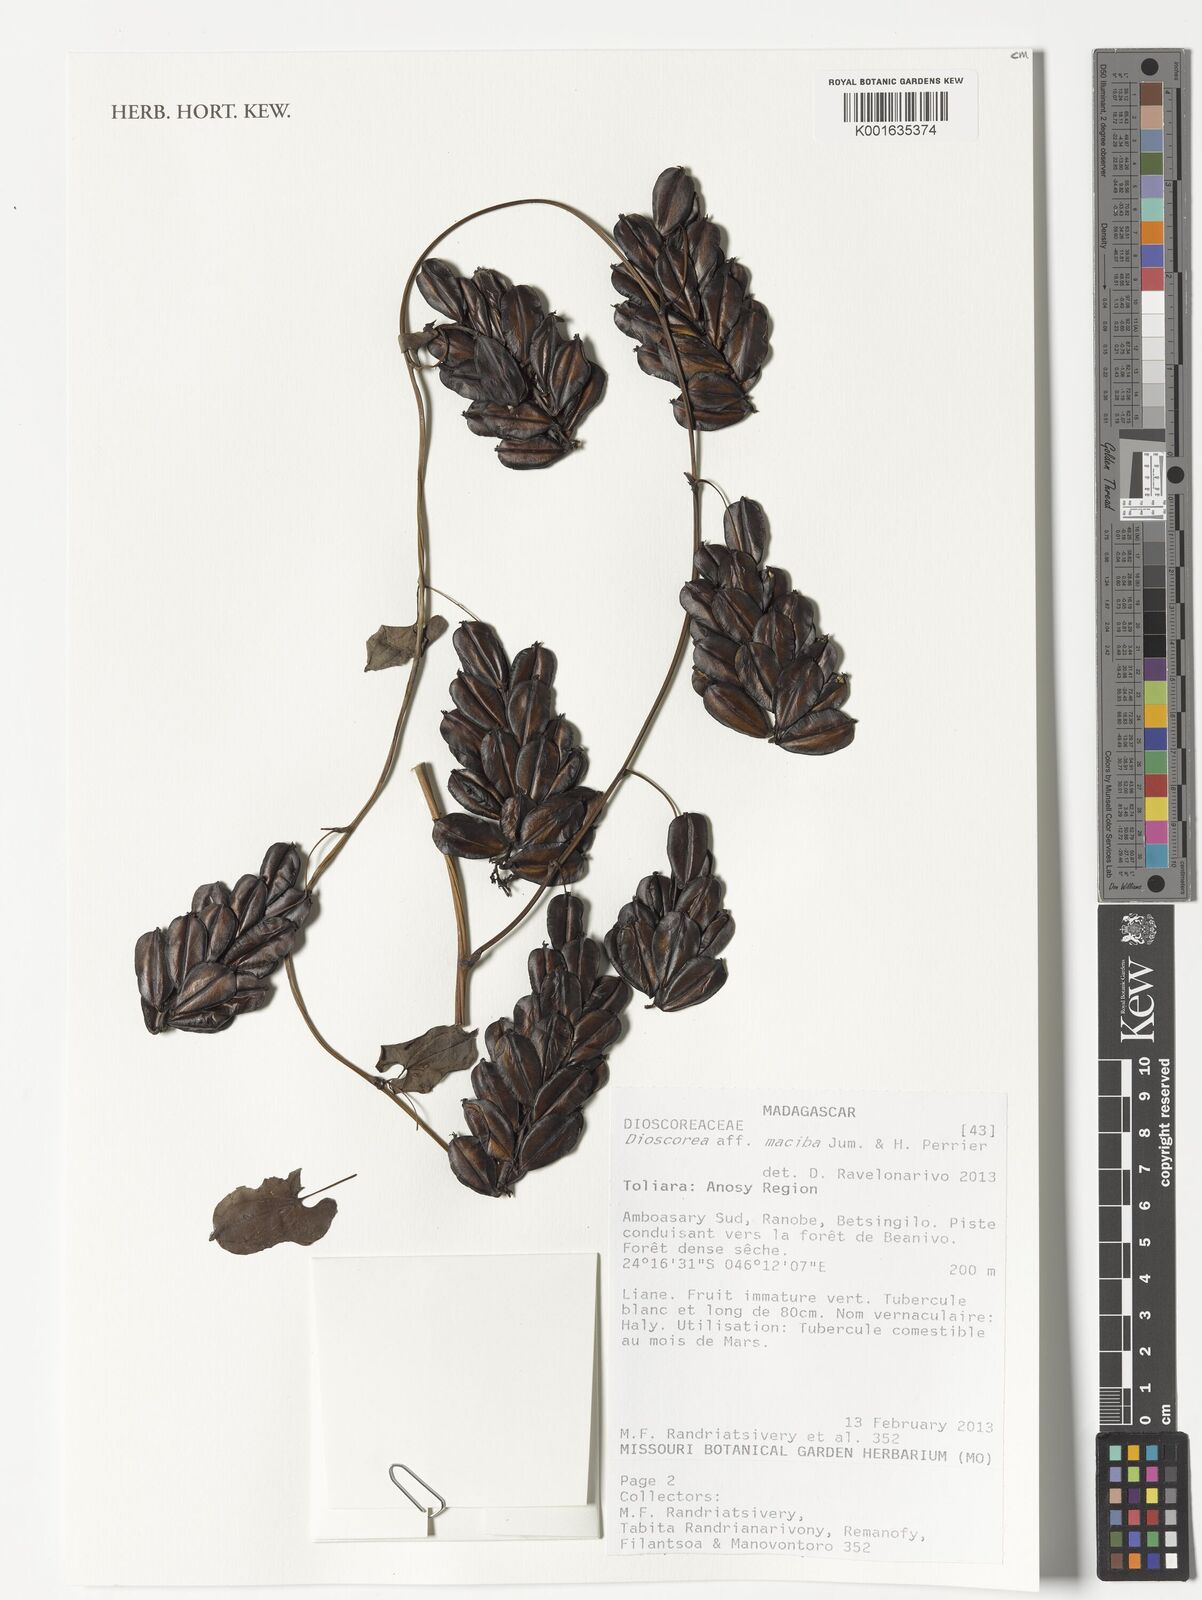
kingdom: Plantae
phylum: Tracheophyta
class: Liliopsida
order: Dioscoreales
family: Dioscoreaceae
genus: Dioscorea
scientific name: Dioscorea maciba
